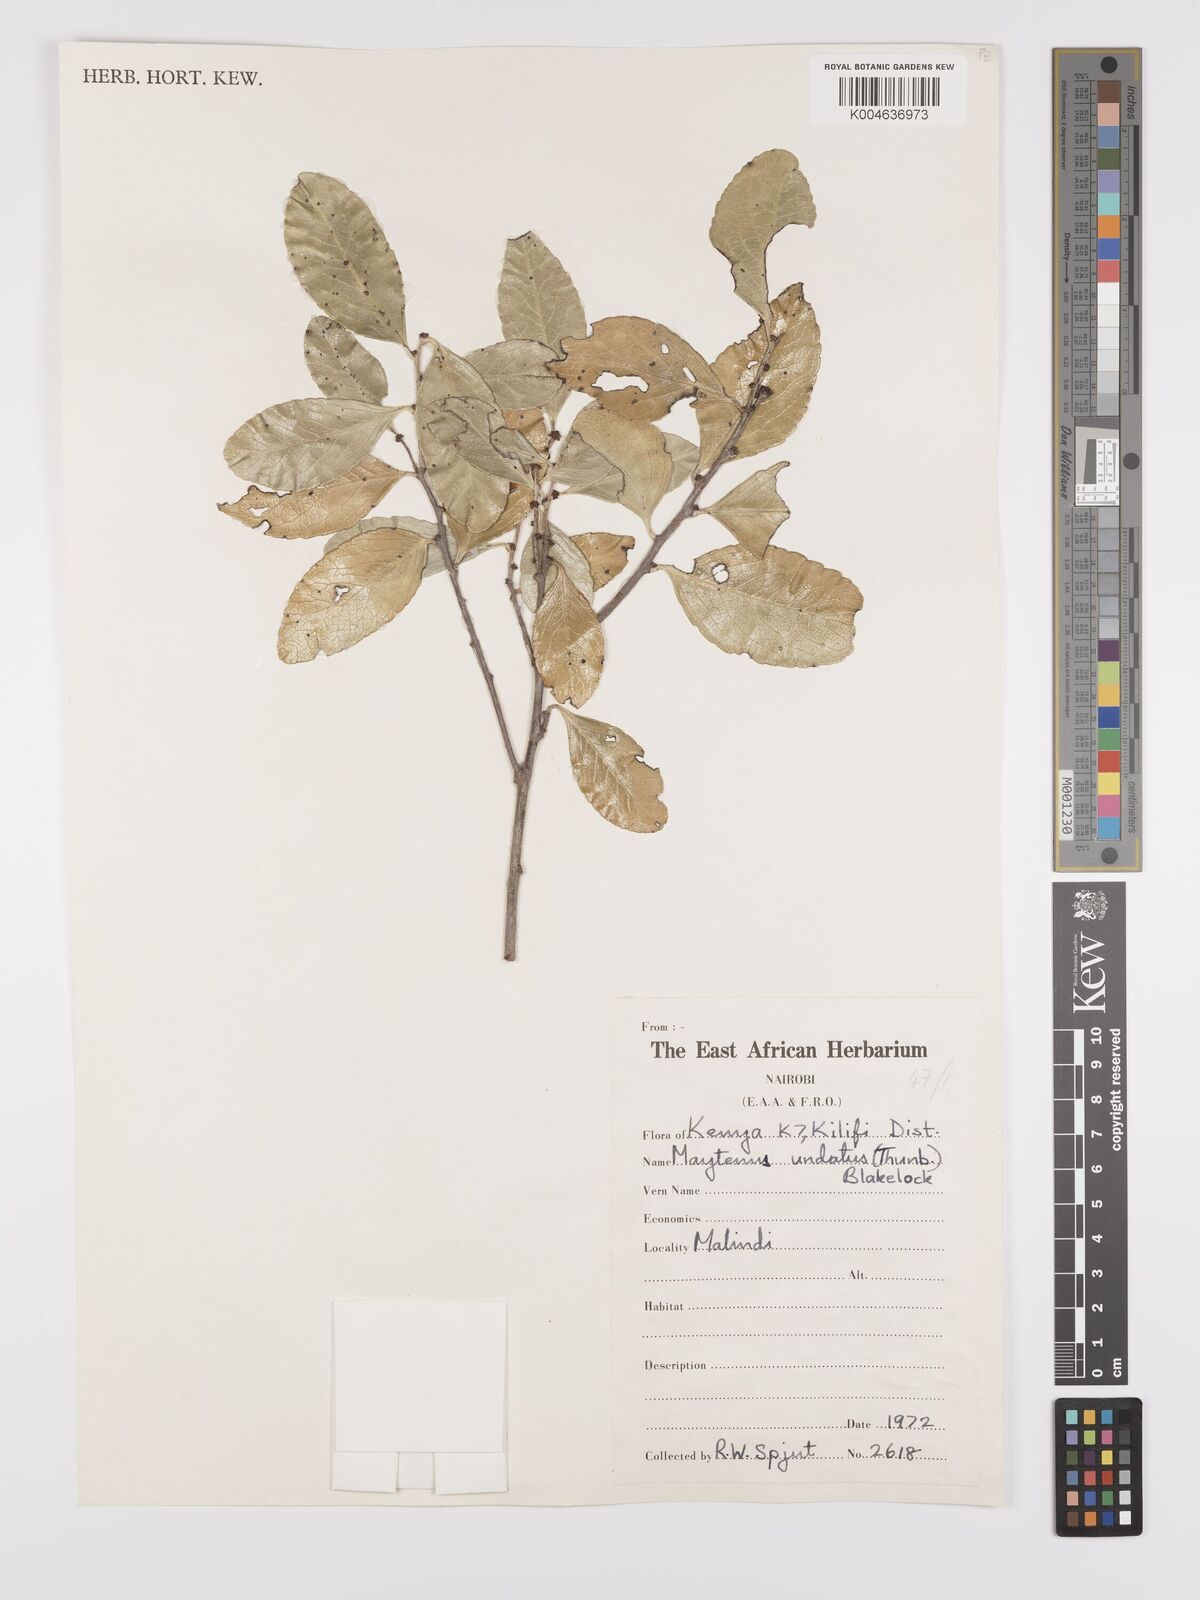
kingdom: Plantae
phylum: Tracheophyta
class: Magnoliopsida
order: Celastrales
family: Celastraceae
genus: Gymnosporia
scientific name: Gymnosporia undata
